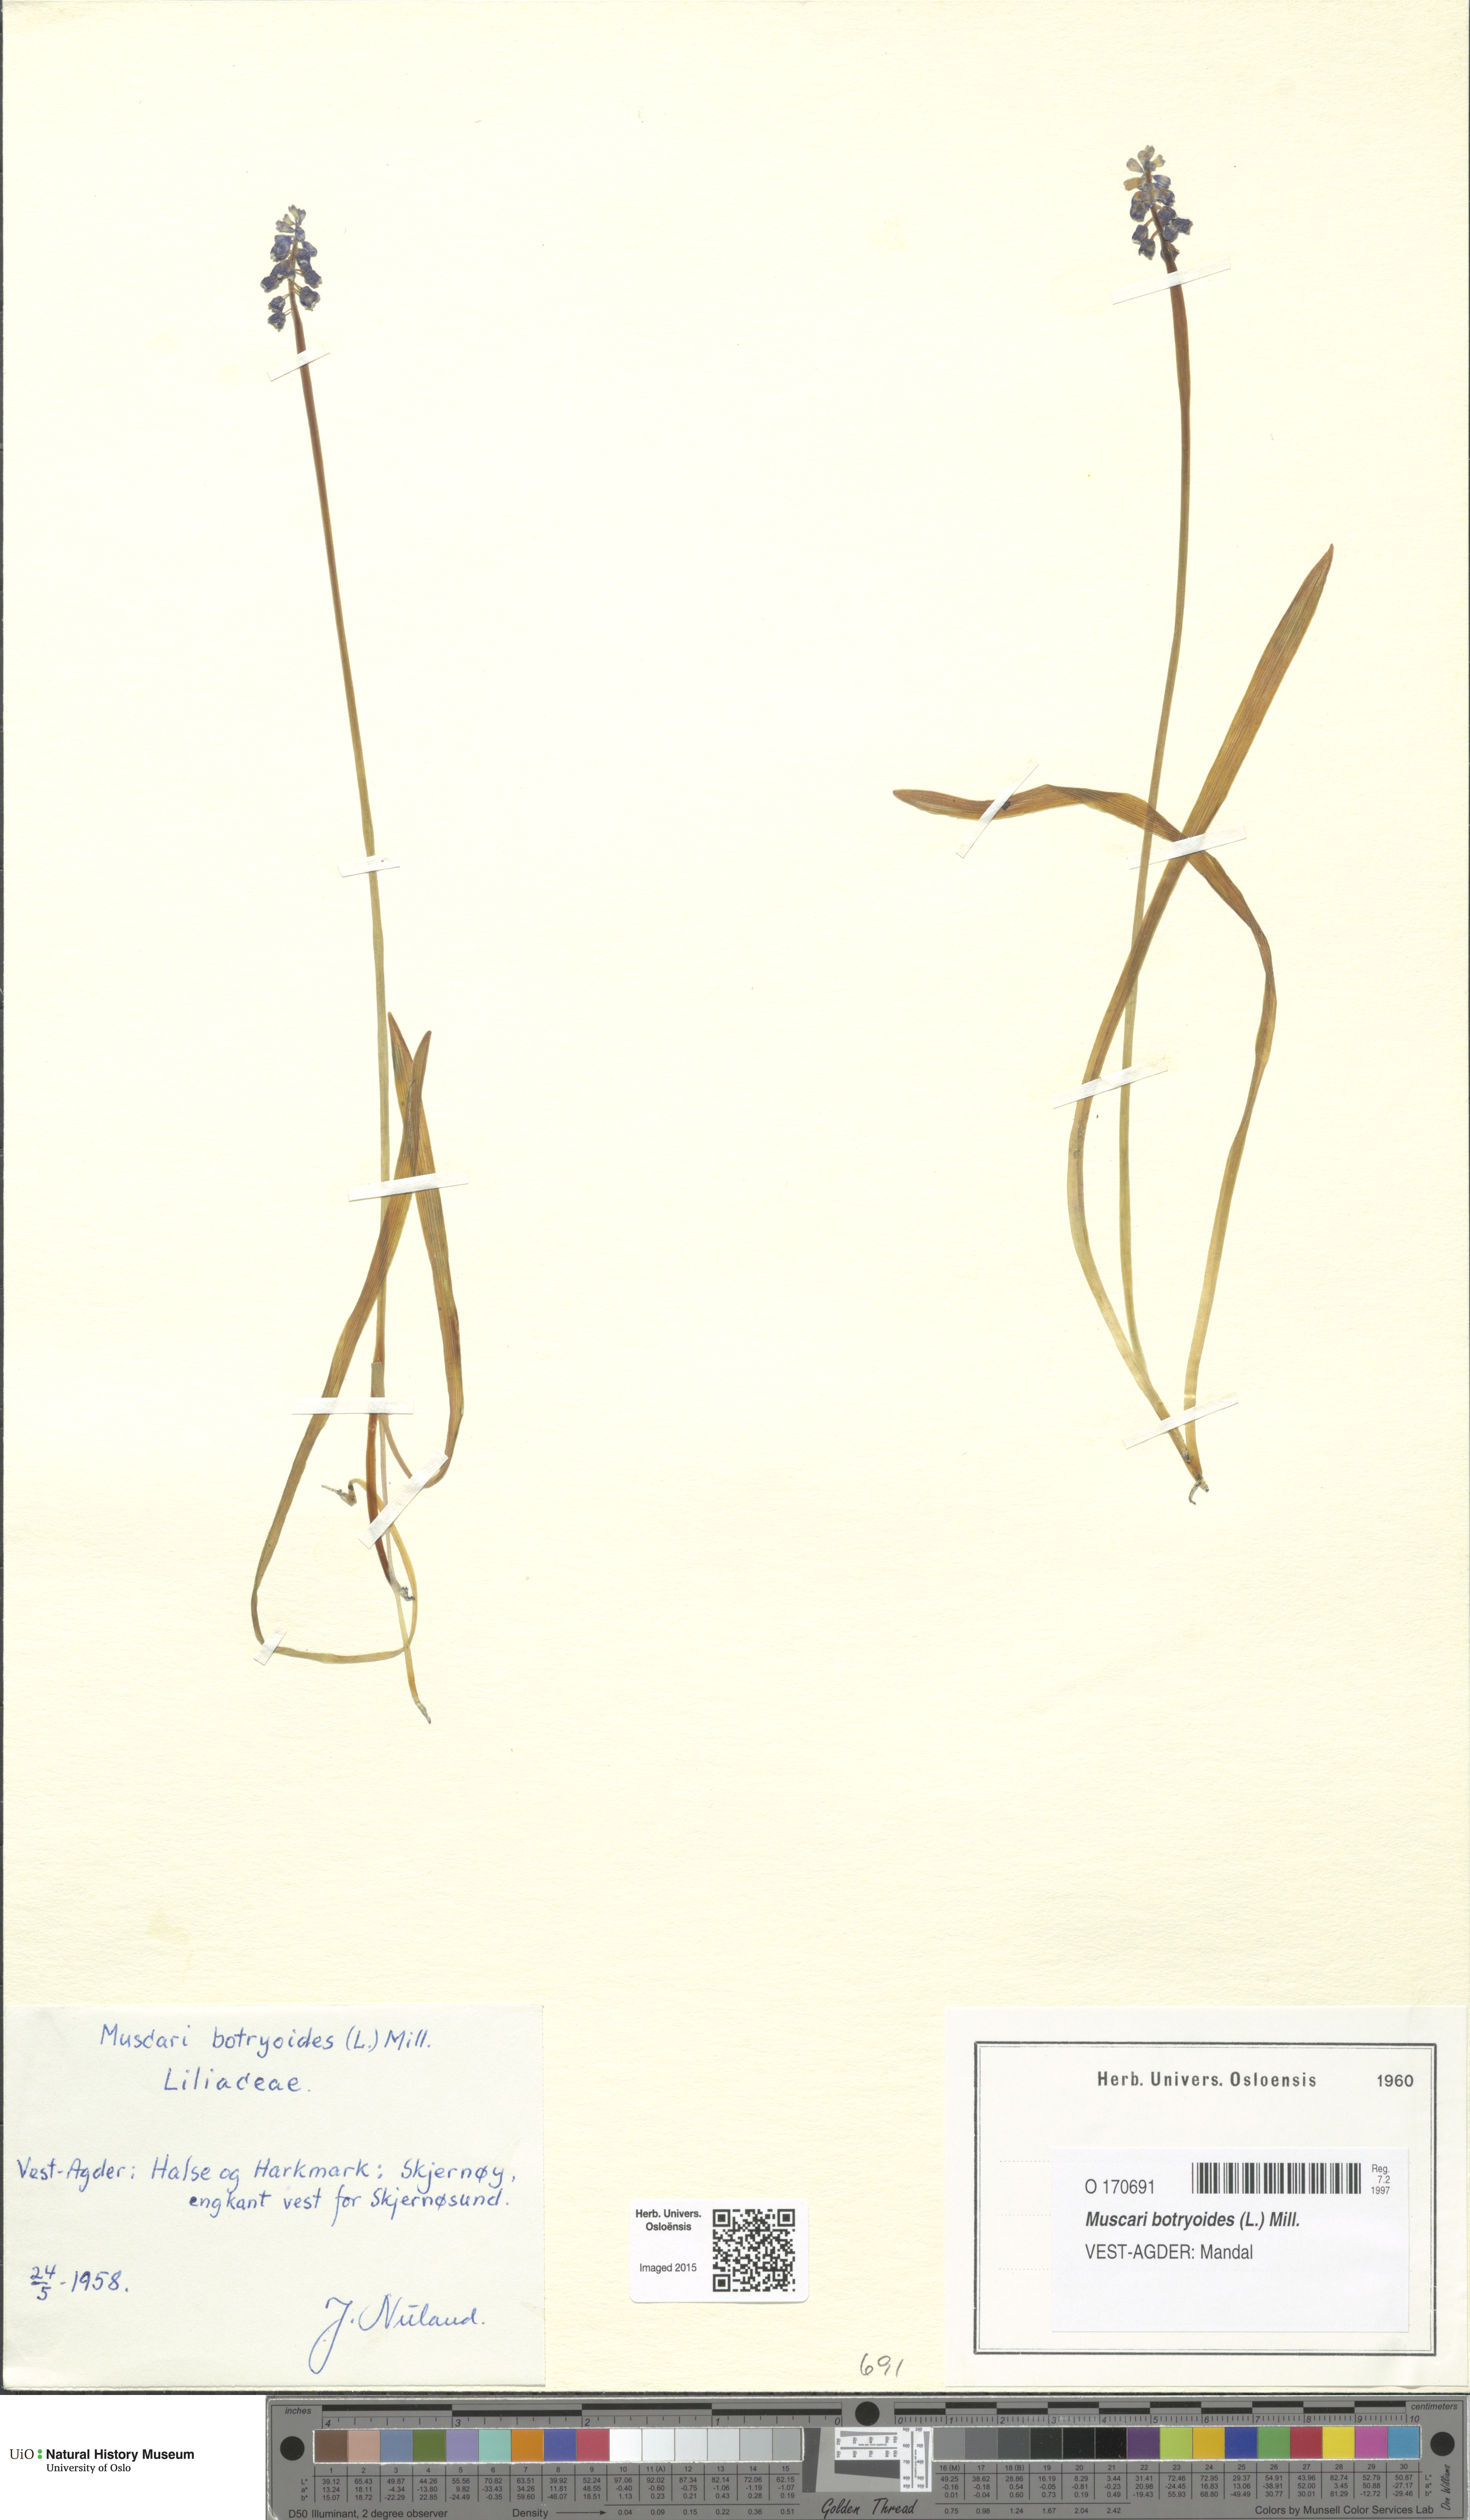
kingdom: Plantae
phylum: Tracheophyta
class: Liliopsida
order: Asparagales
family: Asparagaceae
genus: Muscari
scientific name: Muscari botryoides
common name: Compact grape-hyacinth
